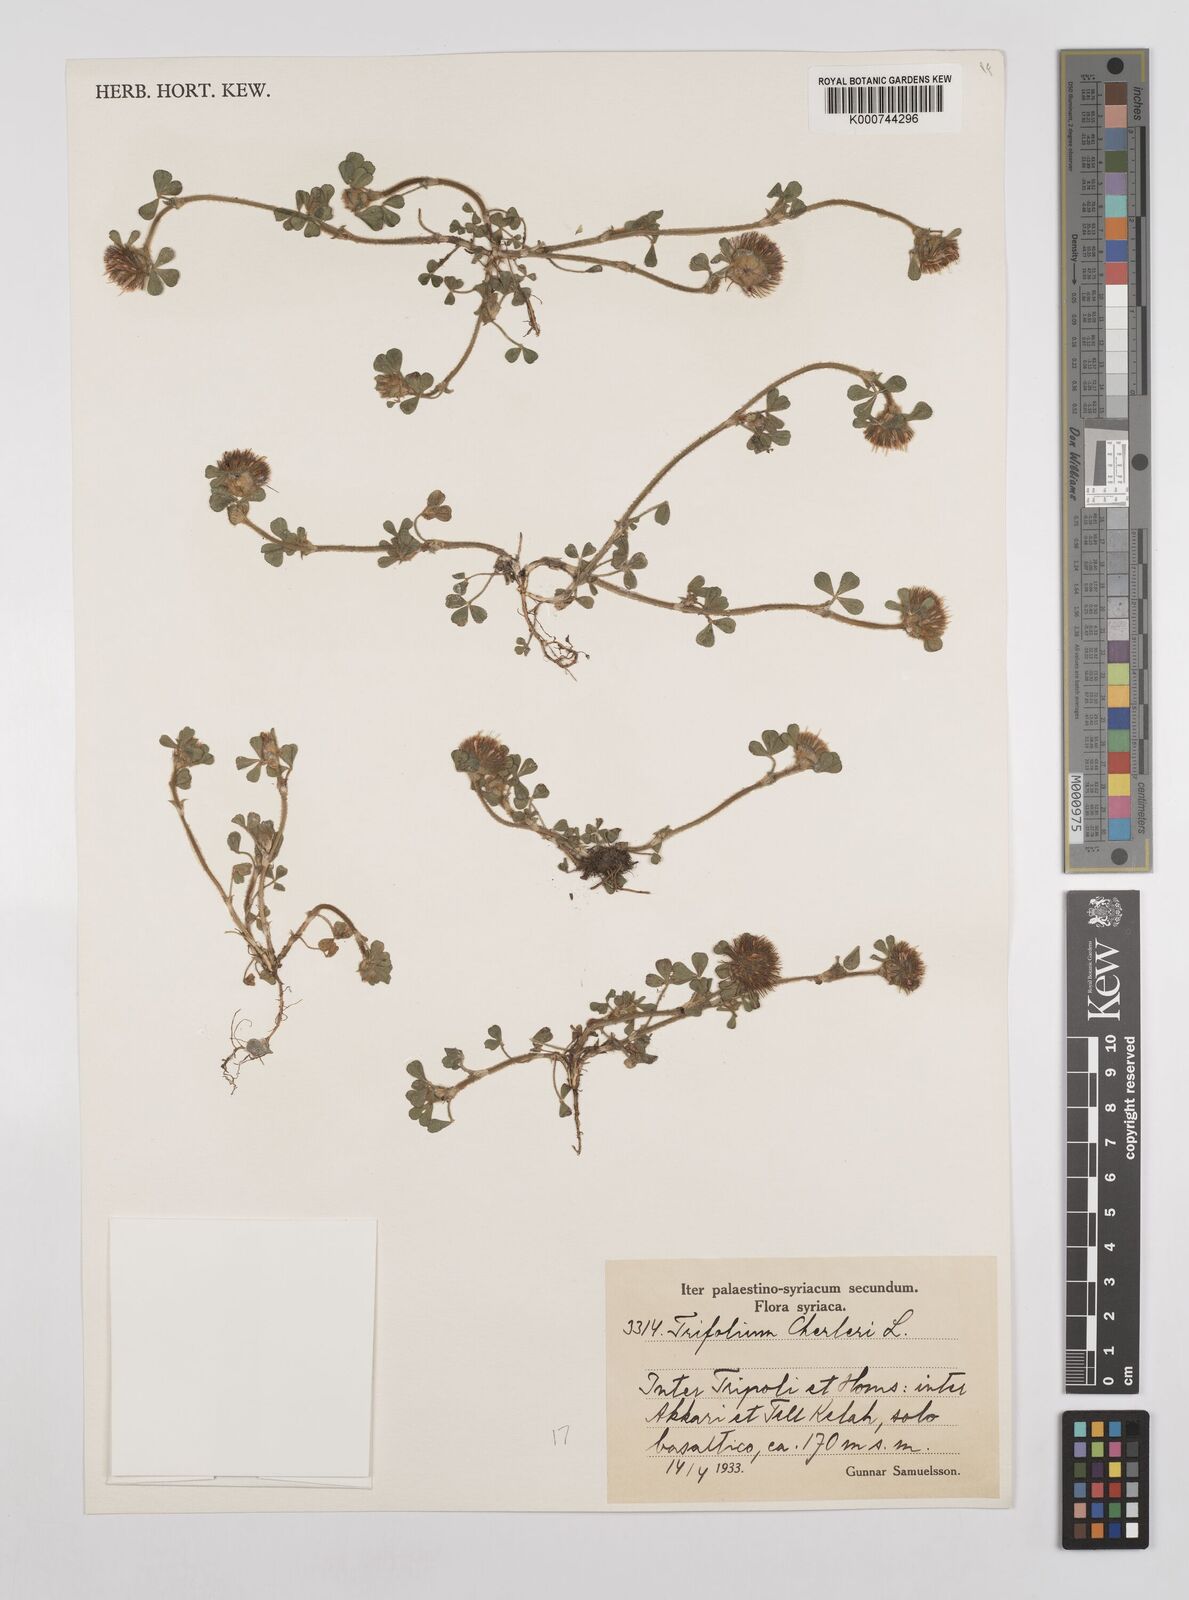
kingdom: Plantae
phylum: Tracheophyta
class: Magnoliopsida
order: Fabales
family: Fabaceae
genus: Trifolium
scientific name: Trifolium hirtum
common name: Rose clover
